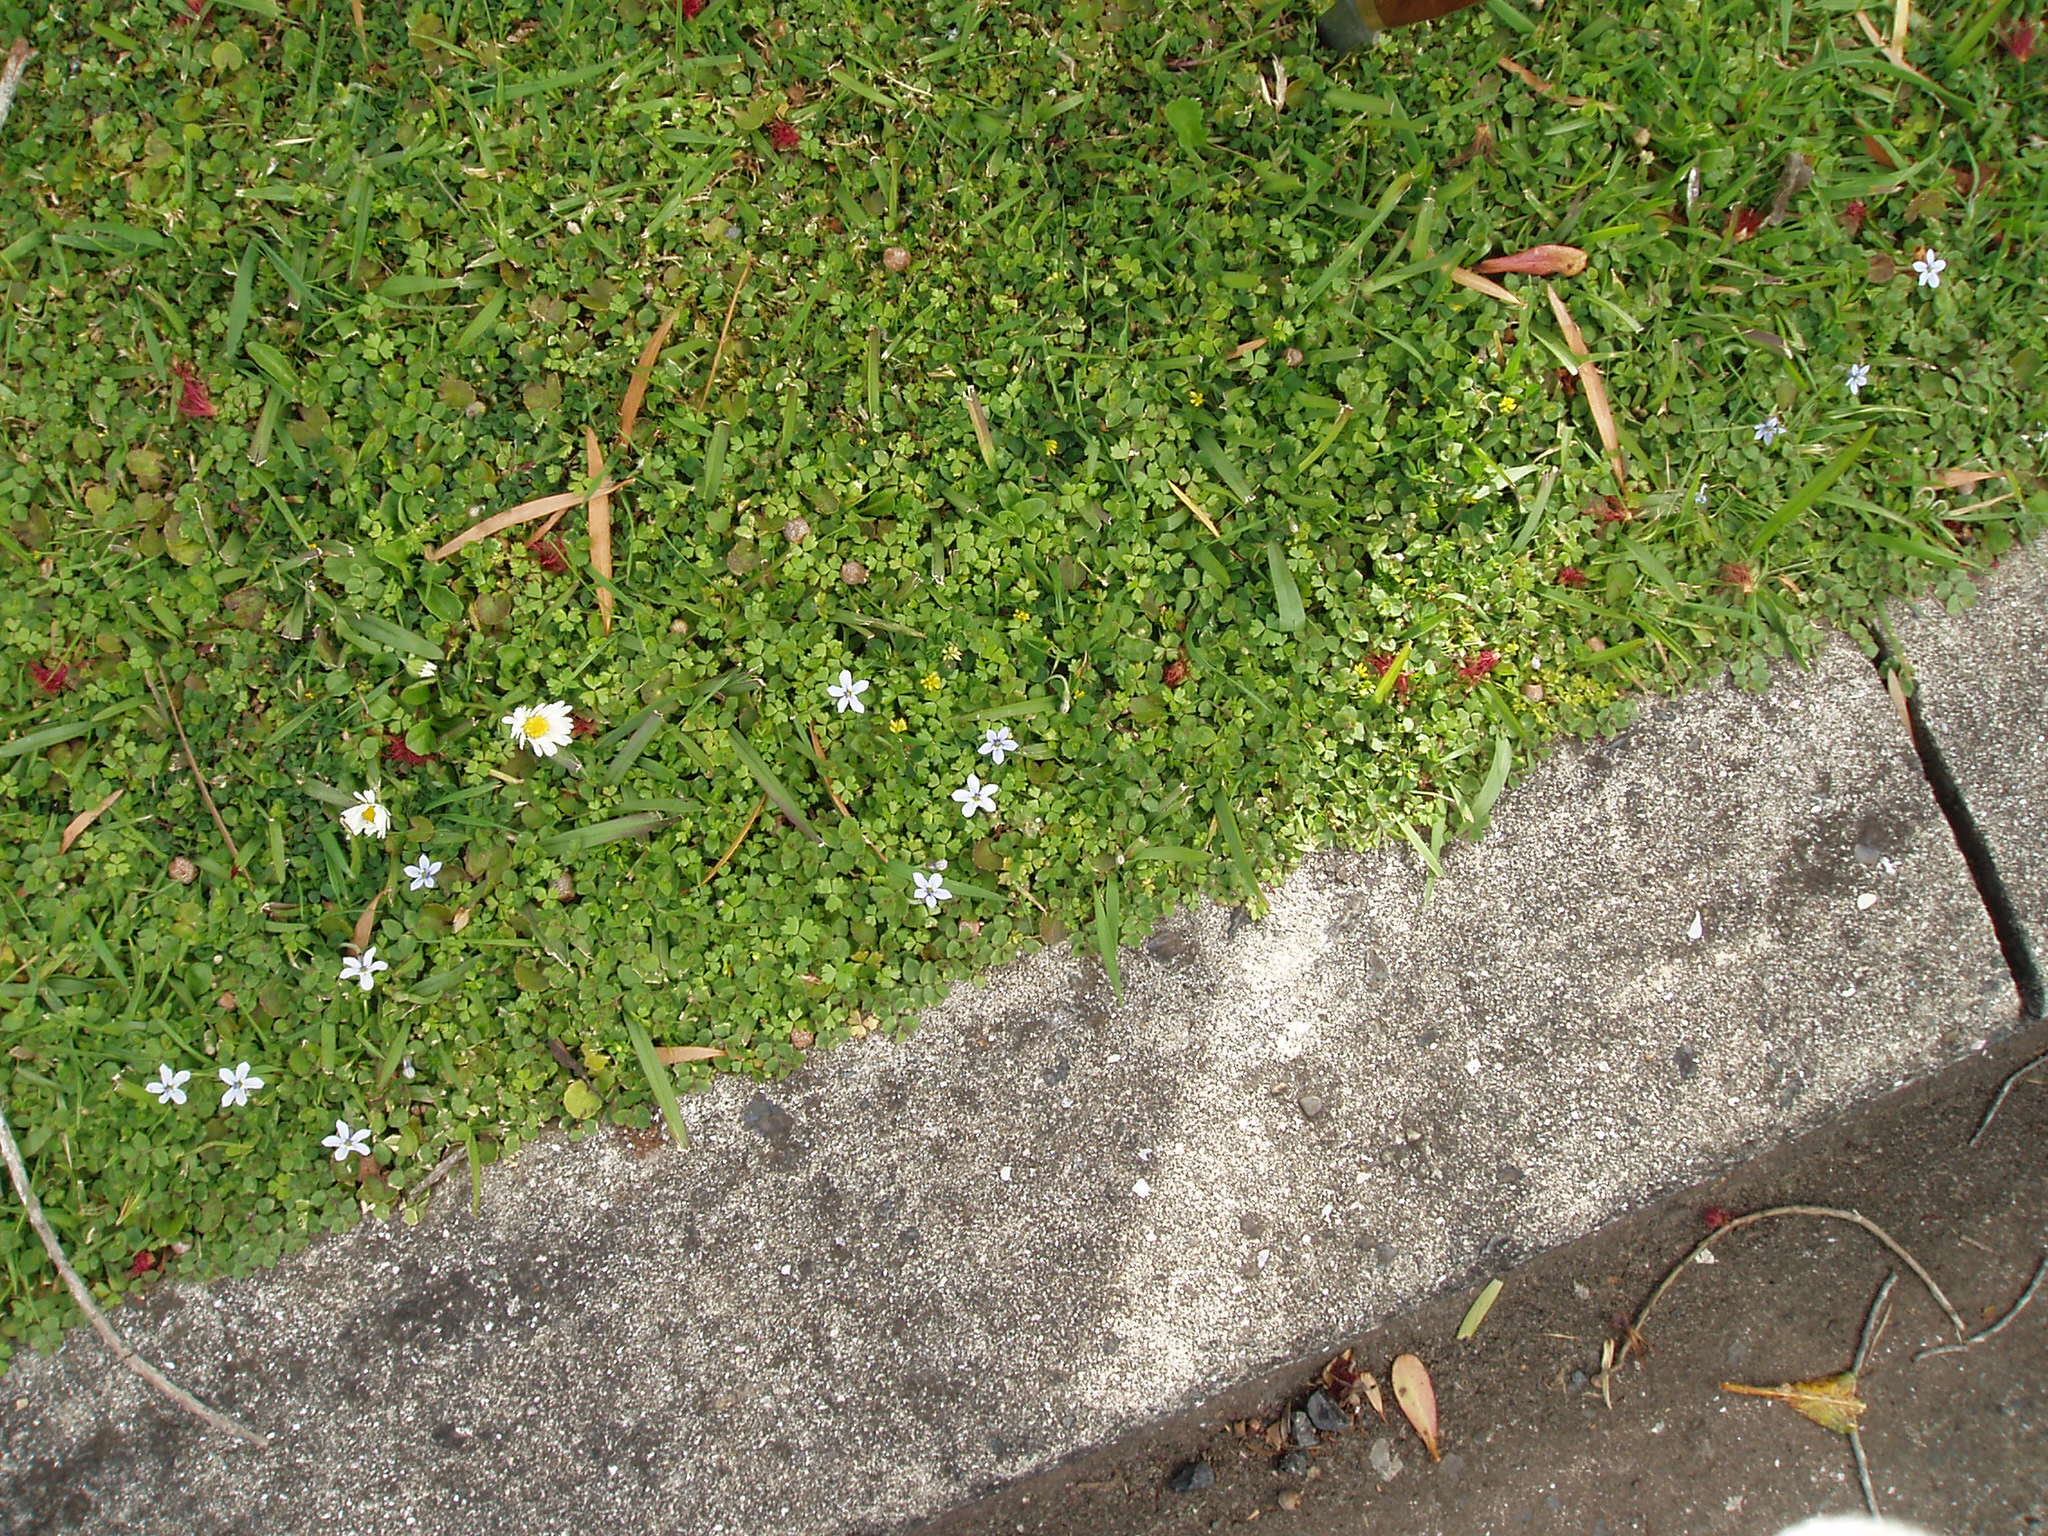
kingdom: Plantae
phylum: Tracheophyta
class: Magnoliopsida
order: Asterales
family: Campanulaceae
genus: Lobelia
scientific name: Lobelia pedunculata
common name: Matted pratia
